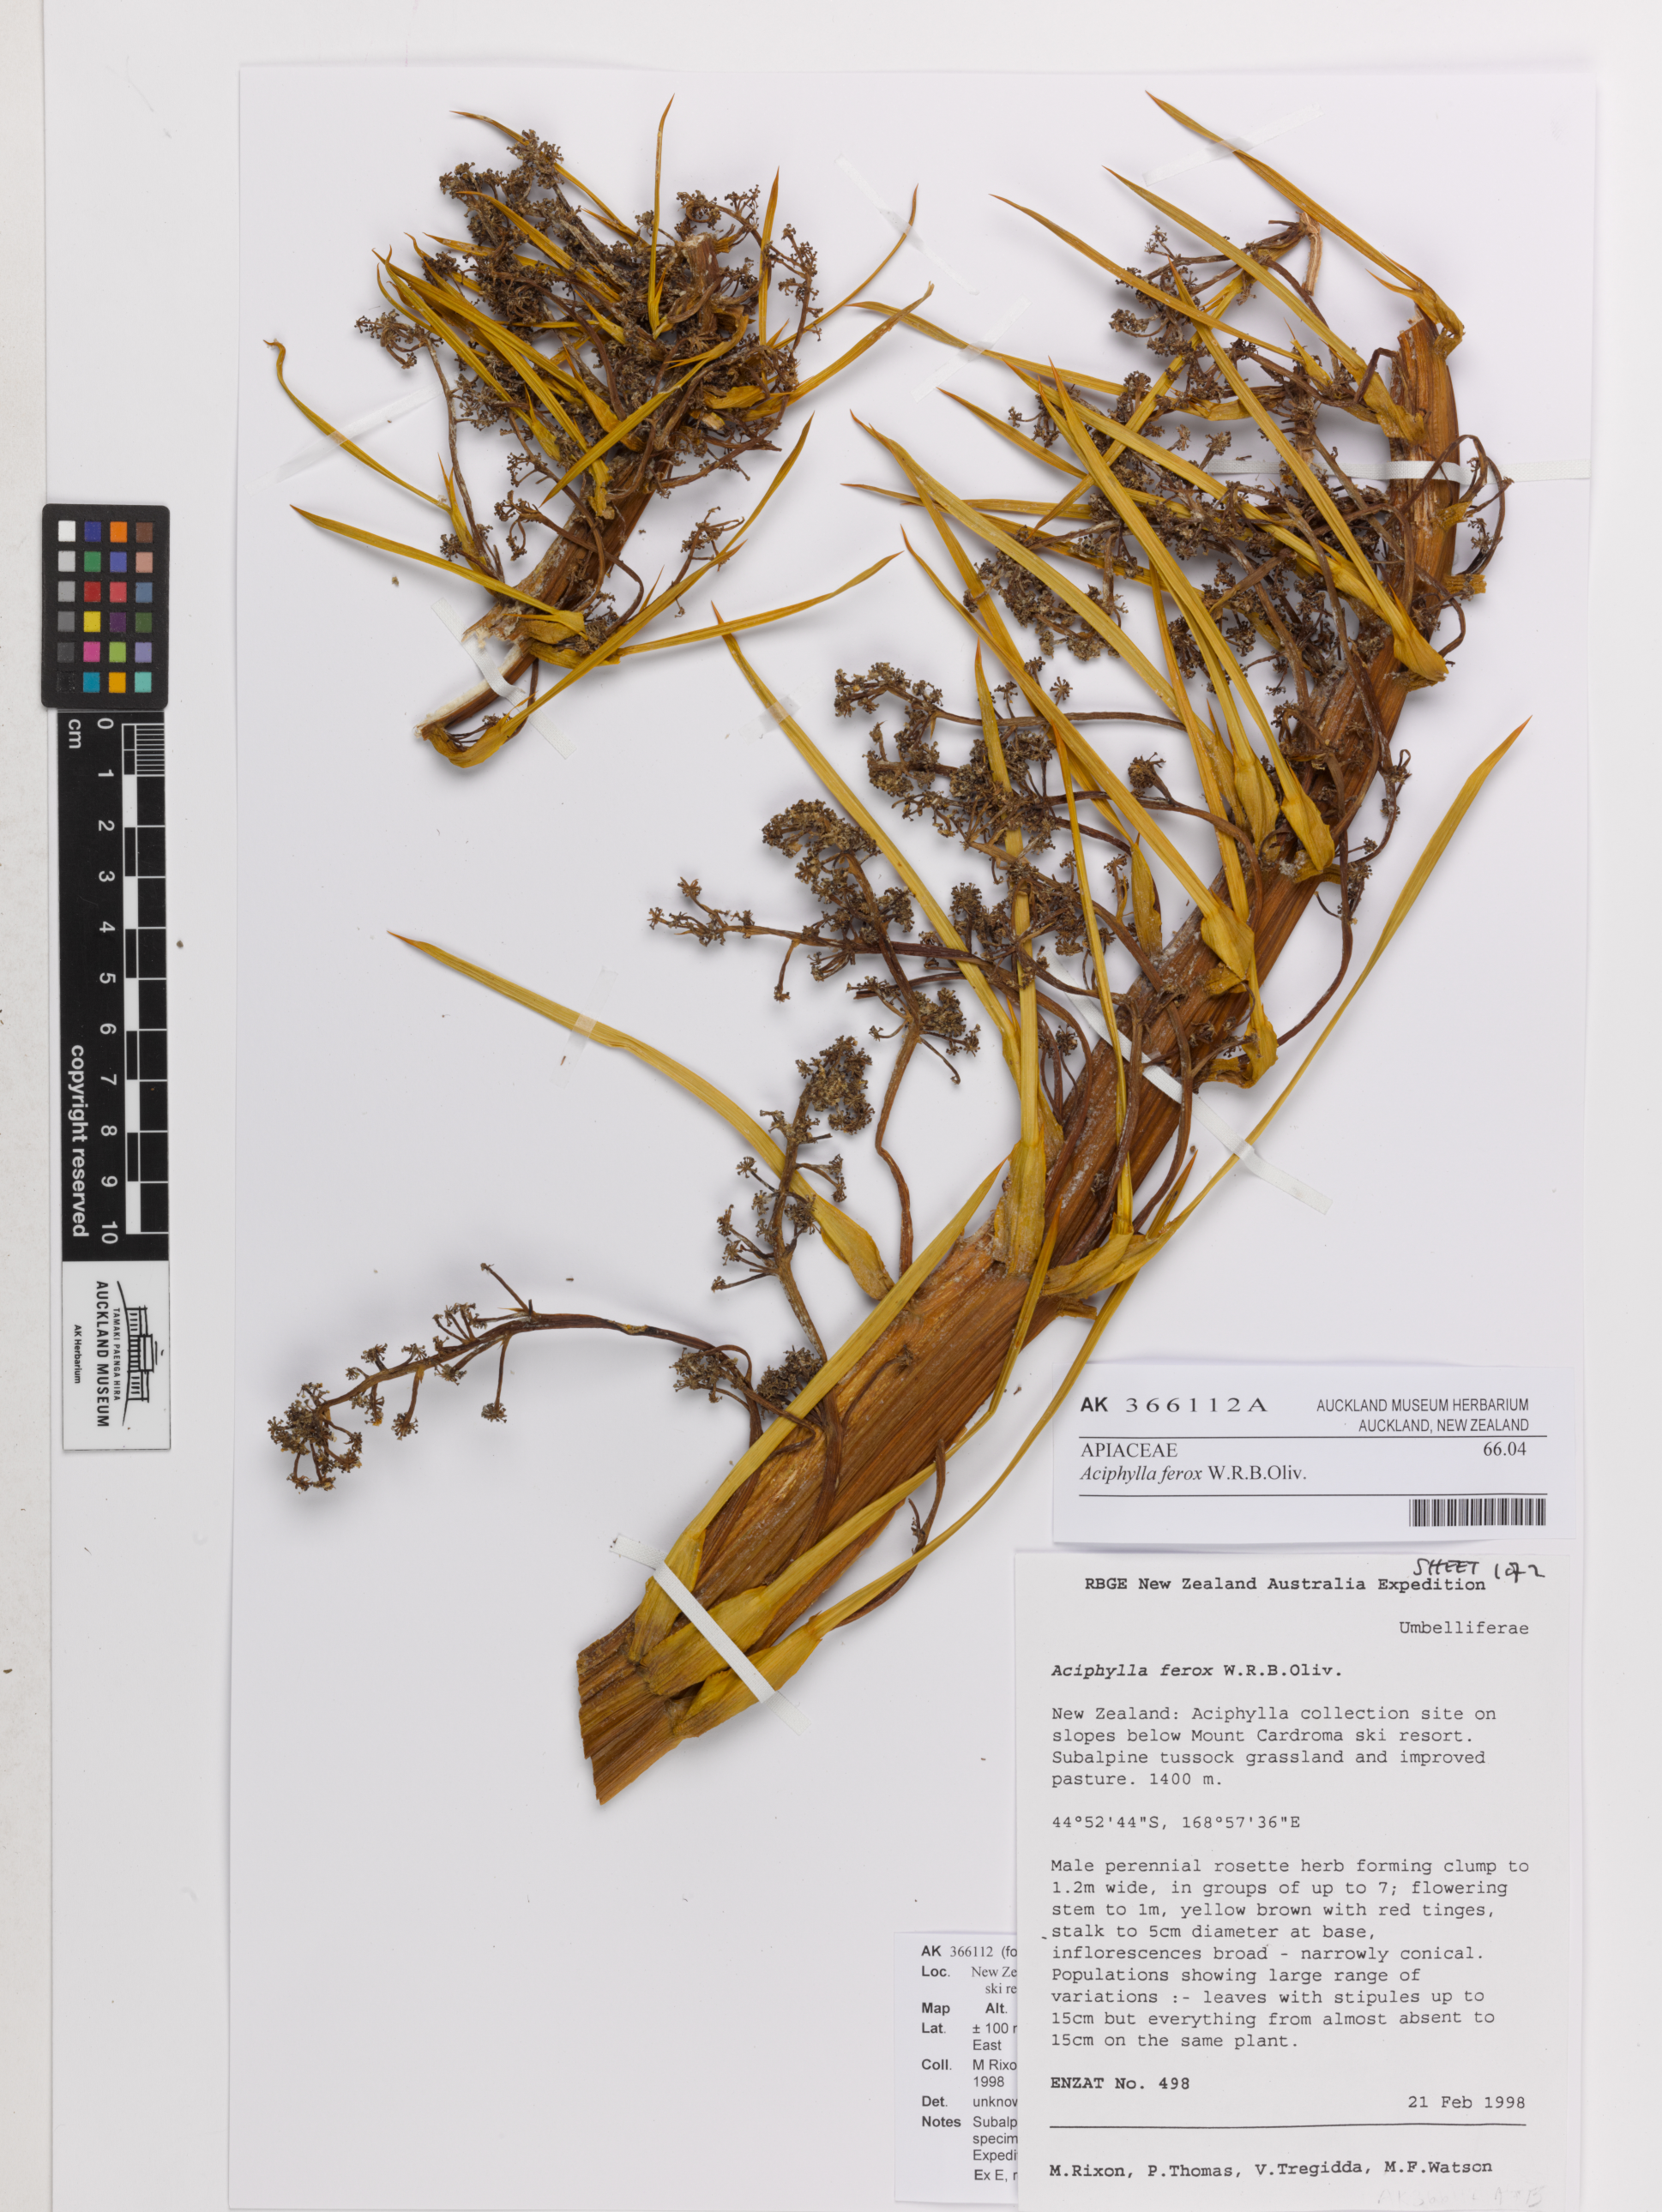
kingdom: Plantae
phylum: Tracheophyta
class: Magnoliopsida
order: Apiales
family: Apiaceae
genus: Aciphylla
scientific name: Aciphylla ferox
